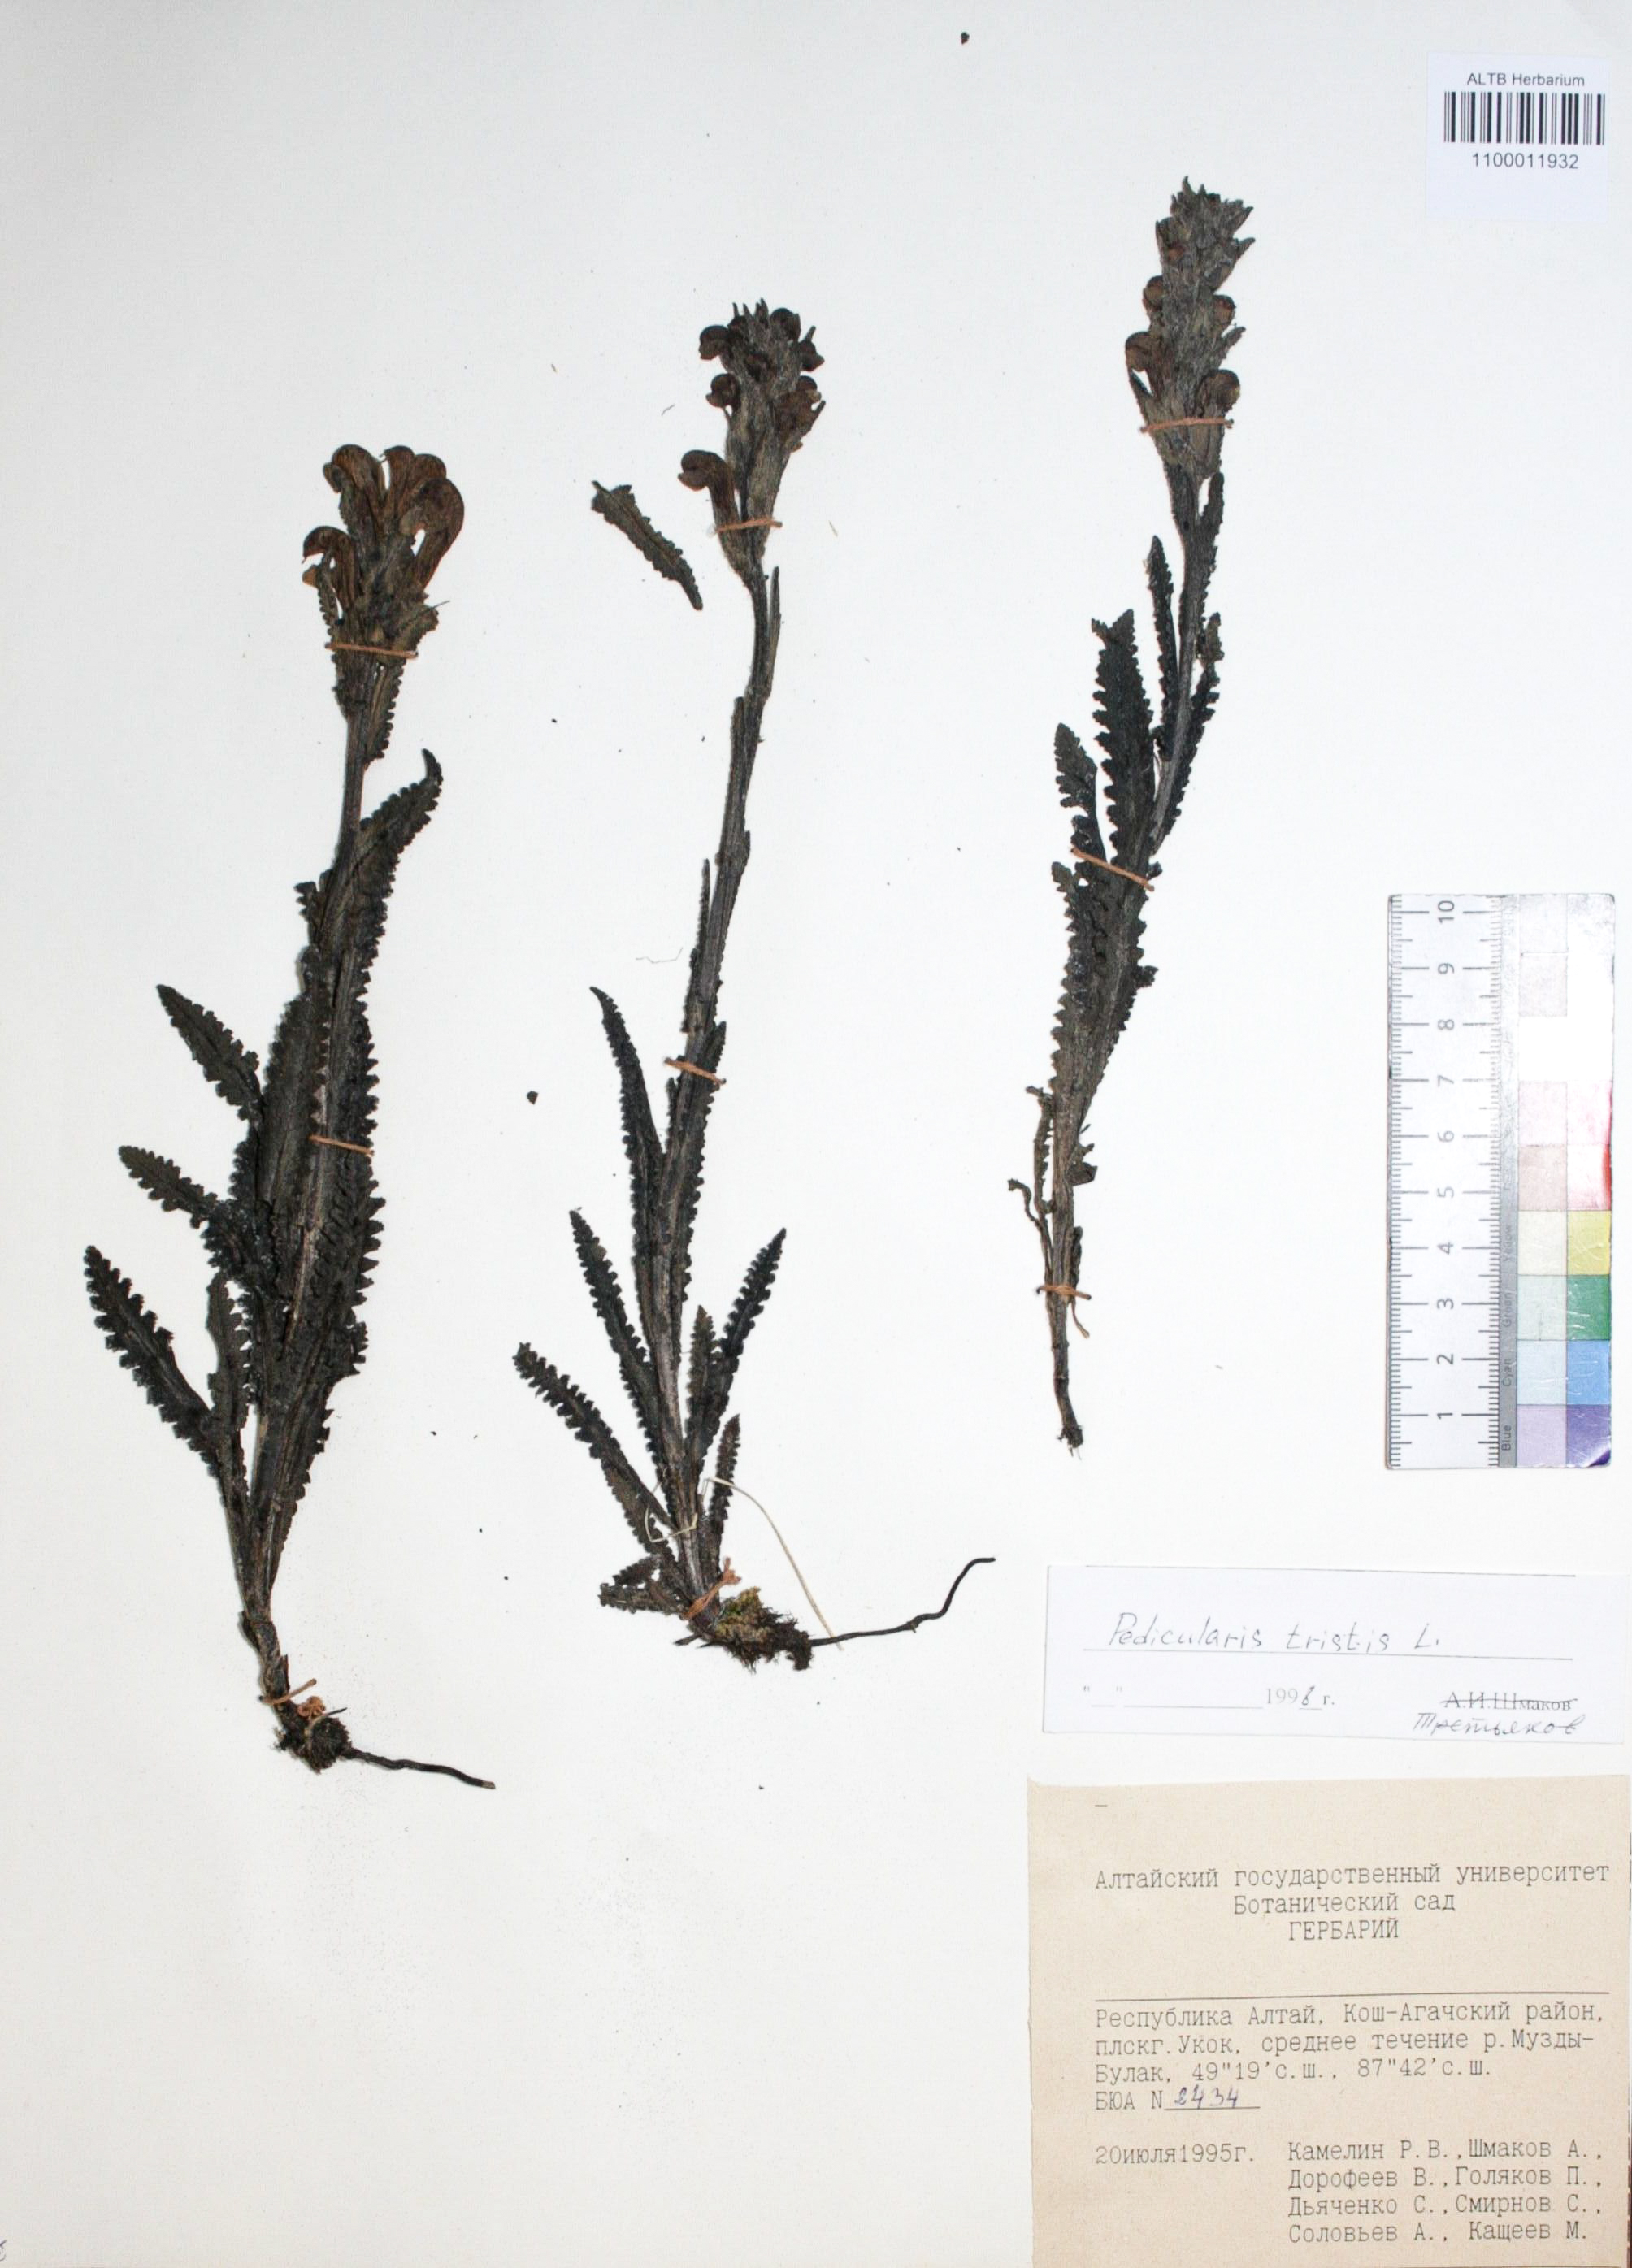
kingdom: Plantae
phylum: Tracheophyta
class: Magnoliopsida
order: Lamiales
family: Orobanchaceae
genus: Pedicularis
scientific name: Pedicularis tristis
